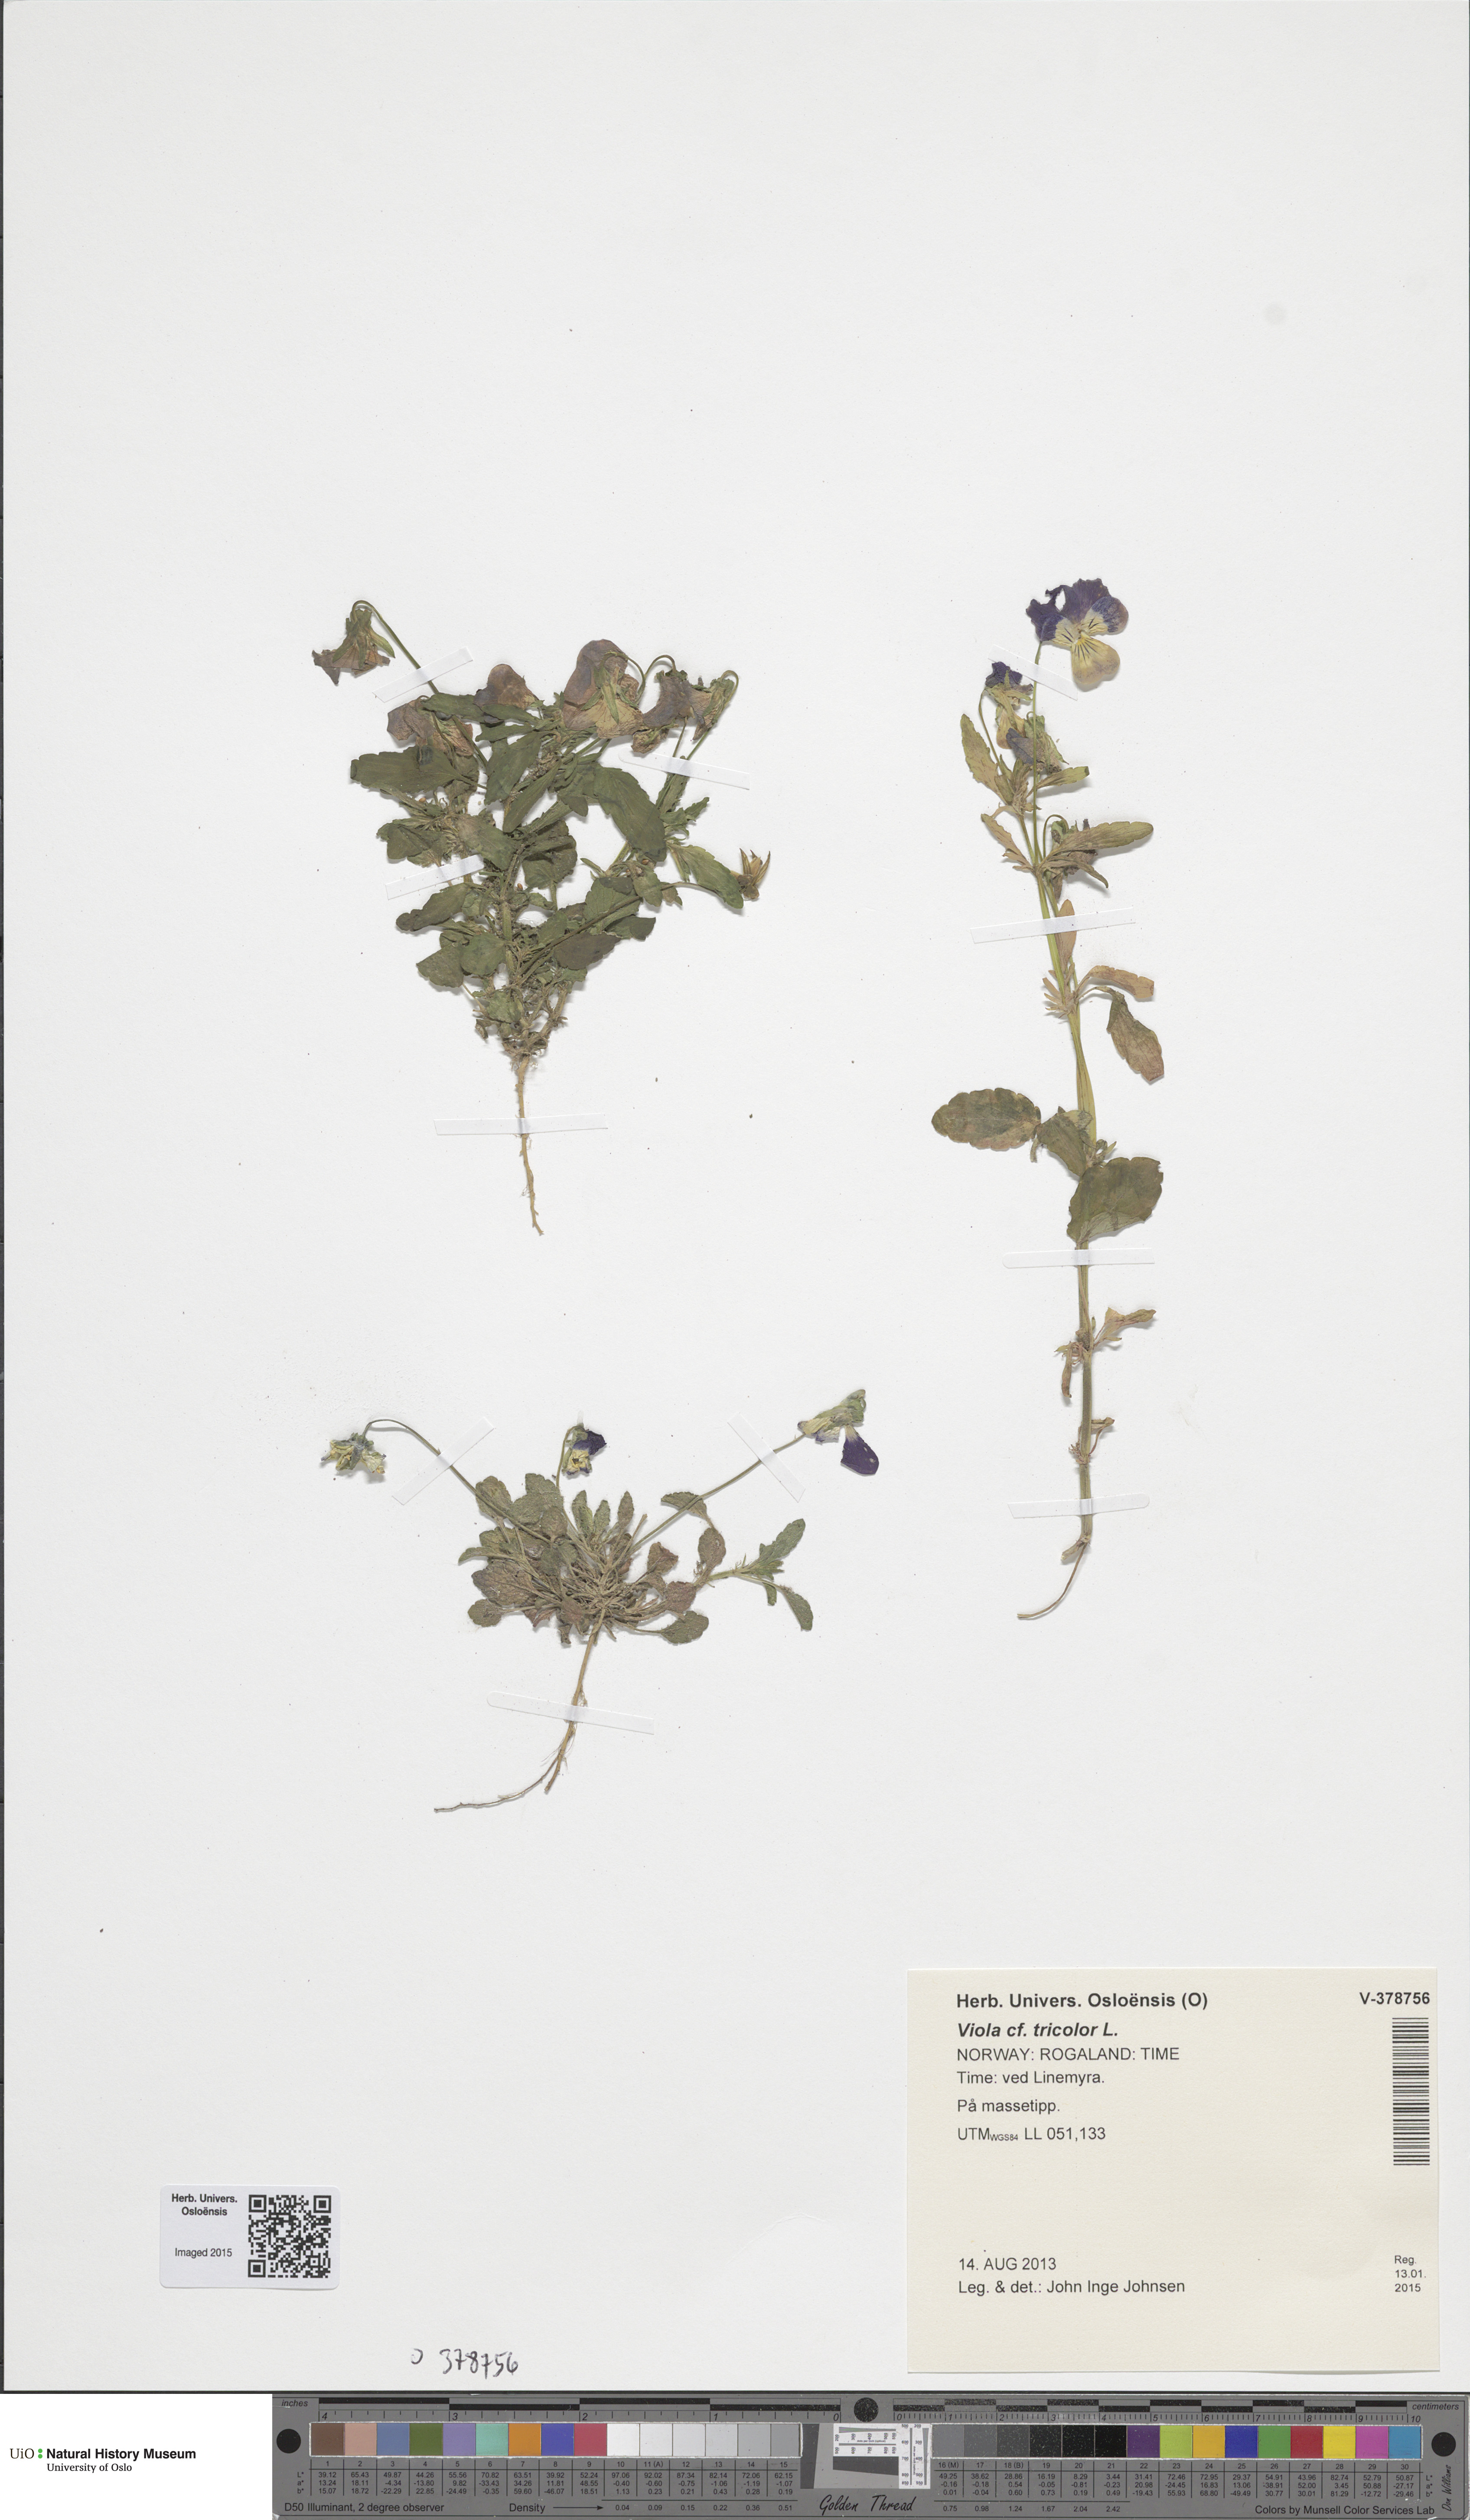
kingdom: Plantae
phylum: Tracheophyta
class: Magnoliopsida
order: Malpighiales
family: Violaceae
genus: Viola
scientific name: Viola tricolor
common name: Pansy
